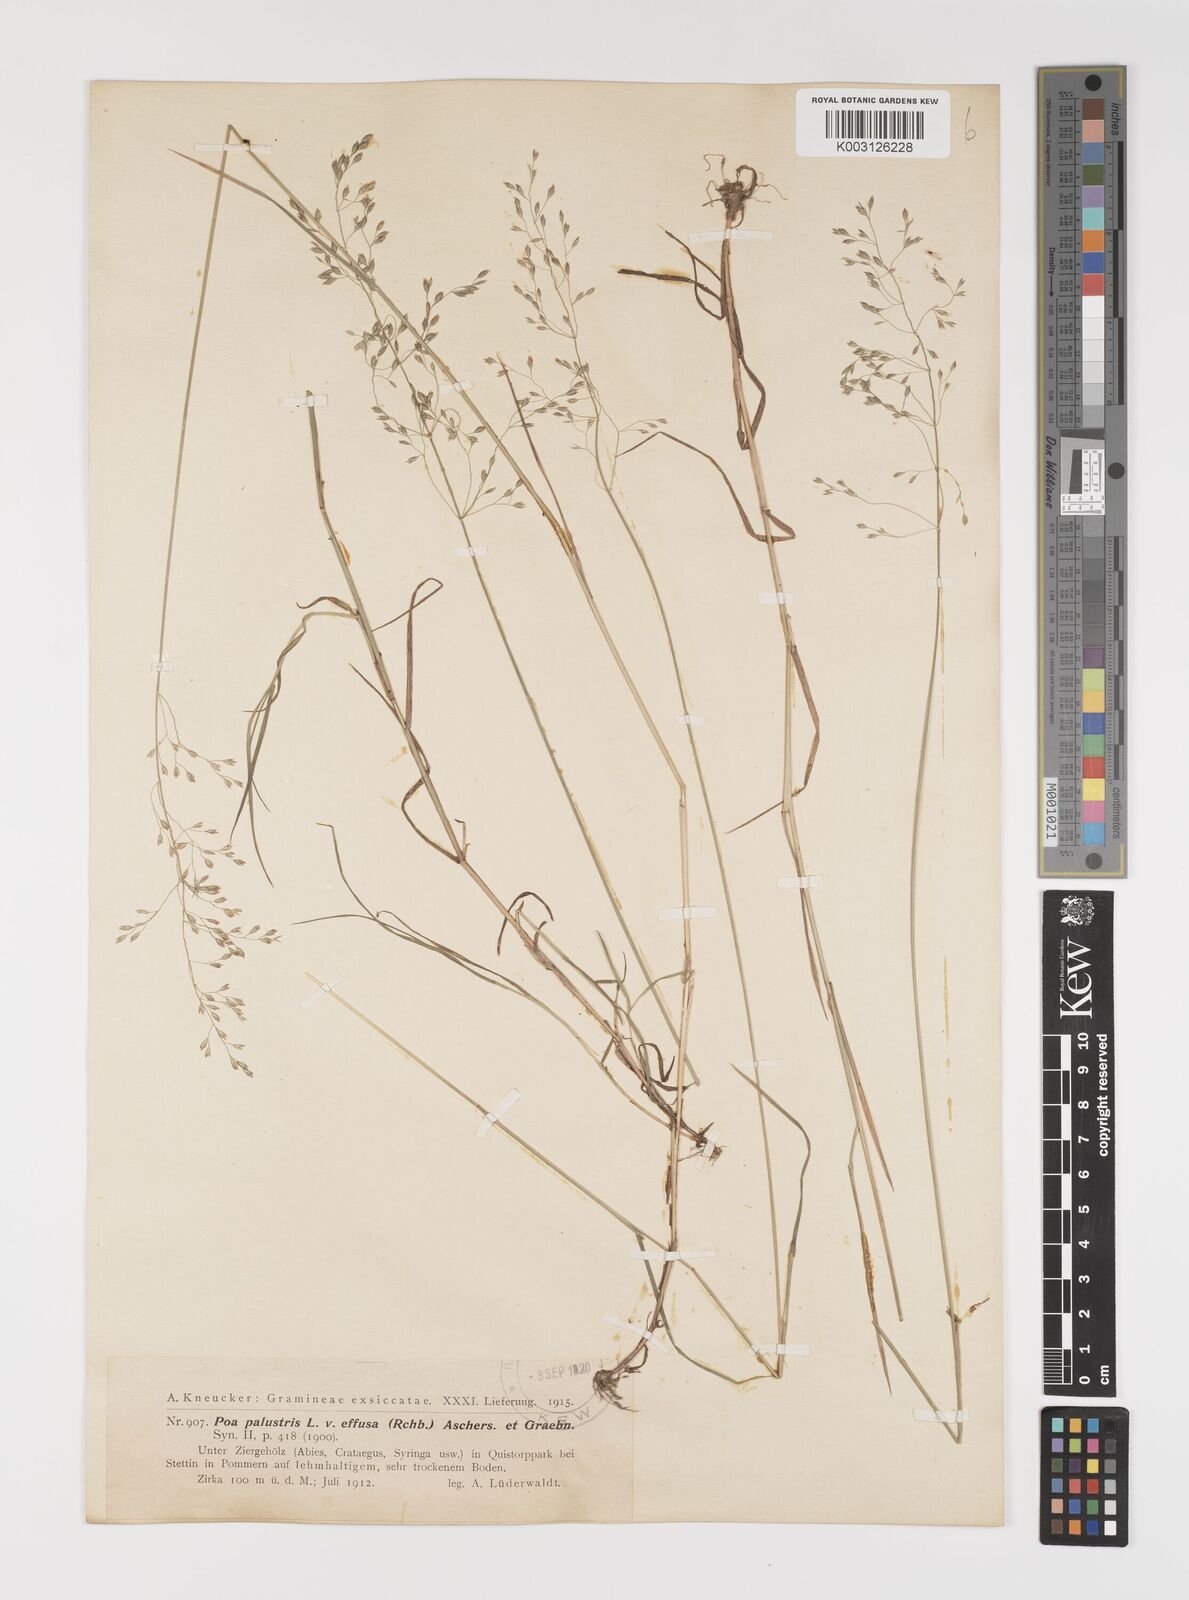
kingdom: Plantae
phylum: Tracheophyta
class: Liliopsida
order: Poales
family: Poaceae
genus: Poa
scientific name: Poa palustris
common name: Swamp meadow-grass
